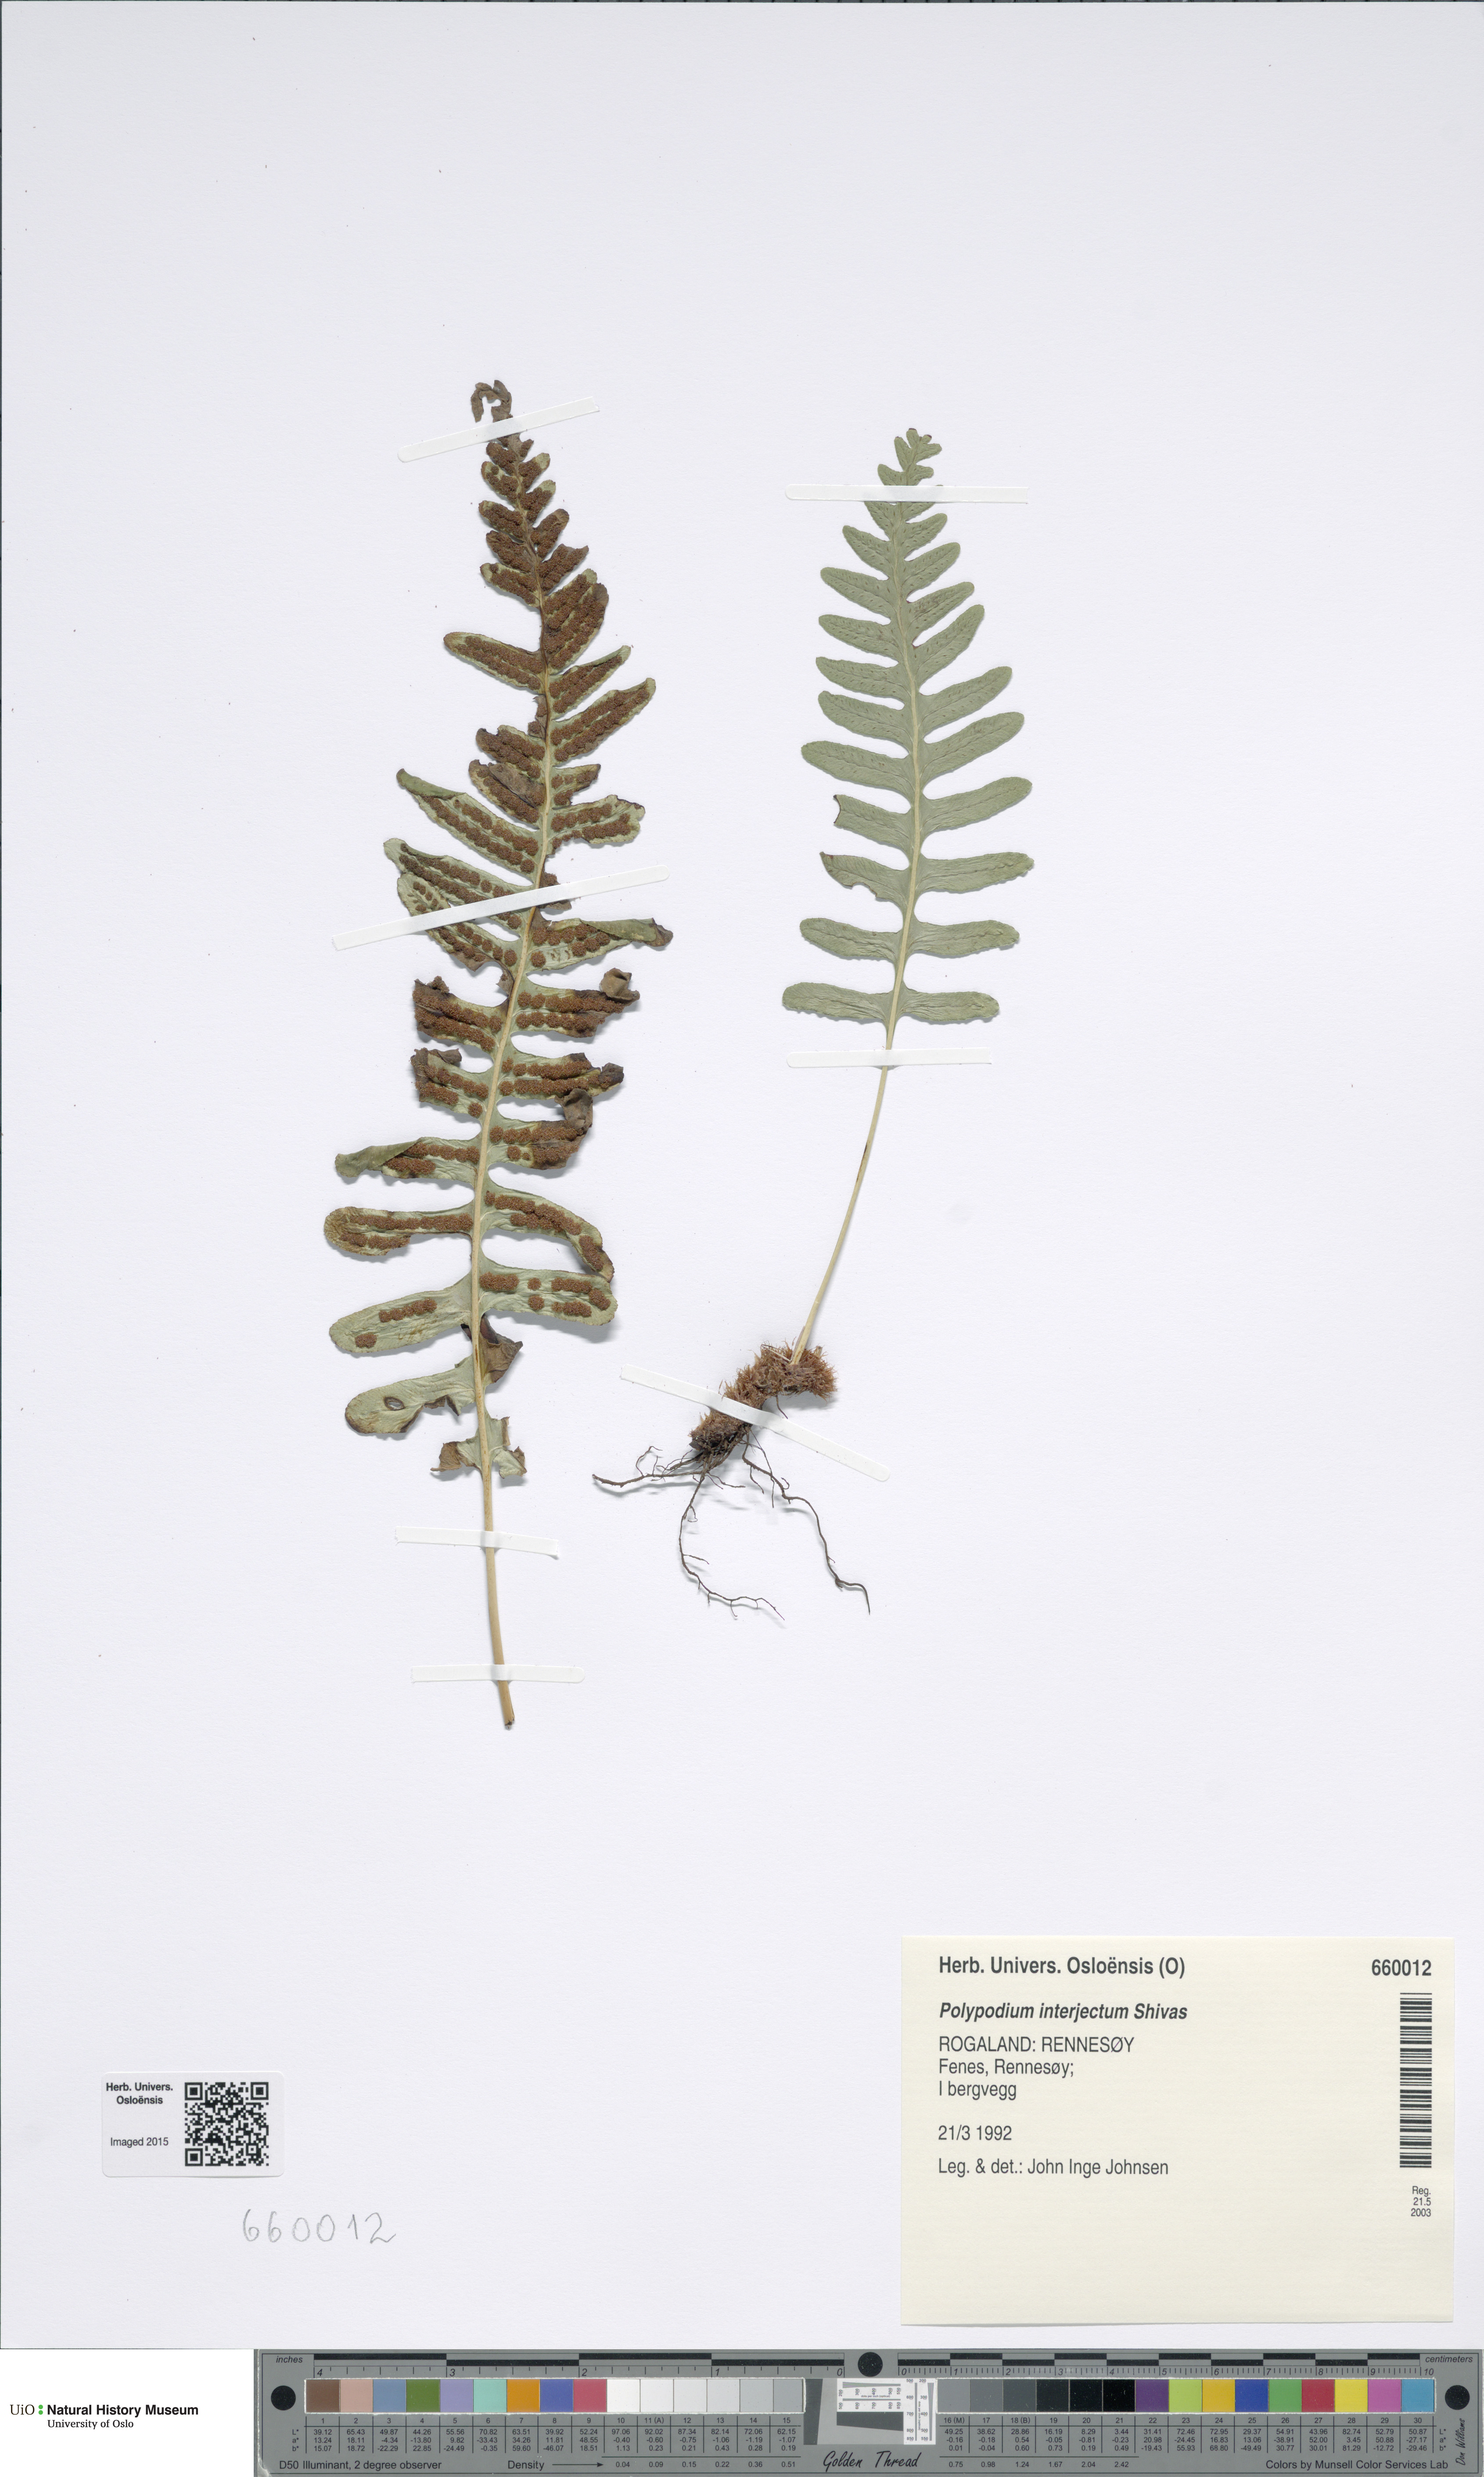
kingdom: Plantae
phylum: Tracheophyta
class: Polypodiopsida
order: Polypodiales
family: Polypodiaceae
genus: Polypodium
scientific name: Polypodium interjectum
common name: Intermediate polypody
